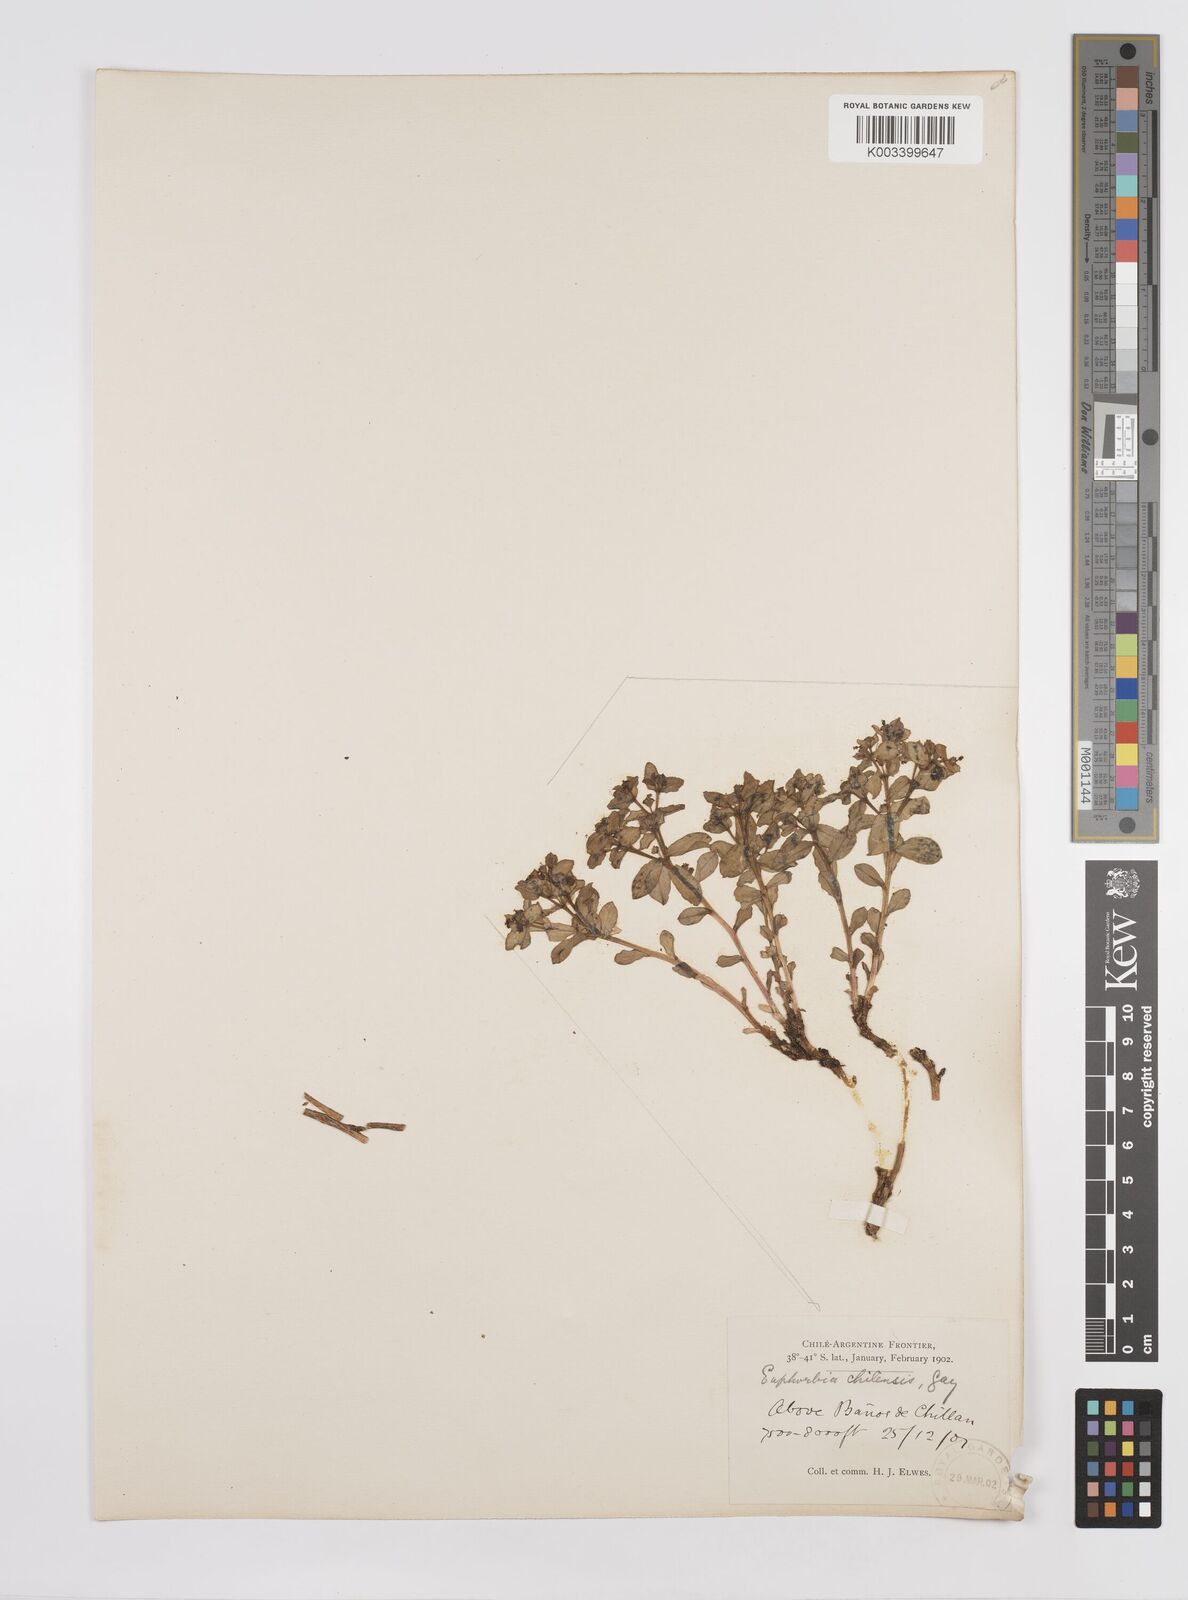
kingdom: Plantae
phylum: Tracheophyta
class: Magnoliopsida
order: Malpighiales
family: Euphorbiaceae
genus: Euphorbia
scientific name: Euphorbia portulacoides
